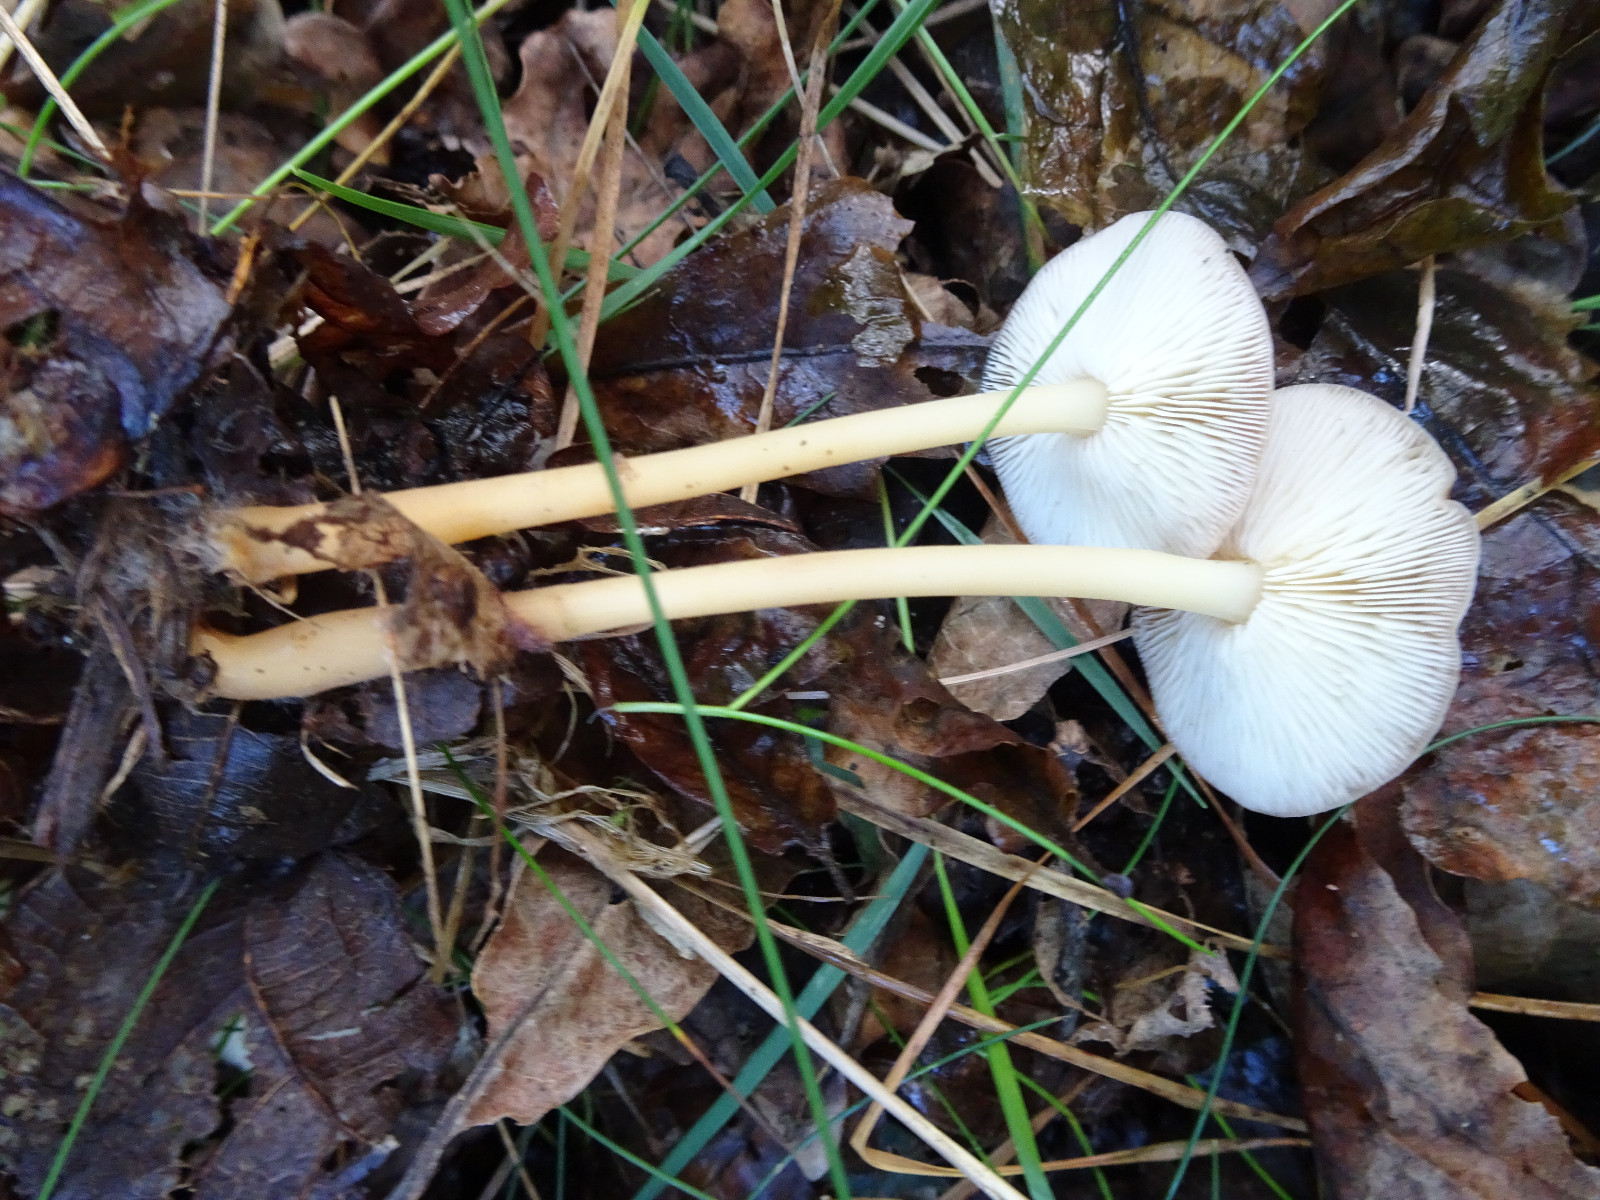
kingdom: Fungi
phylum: Basidiomycota
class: Agaricomycetes
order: Agaricales
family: Omphalotaceae
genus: Gymnopus
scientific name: Gymnopus
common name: fladhat
